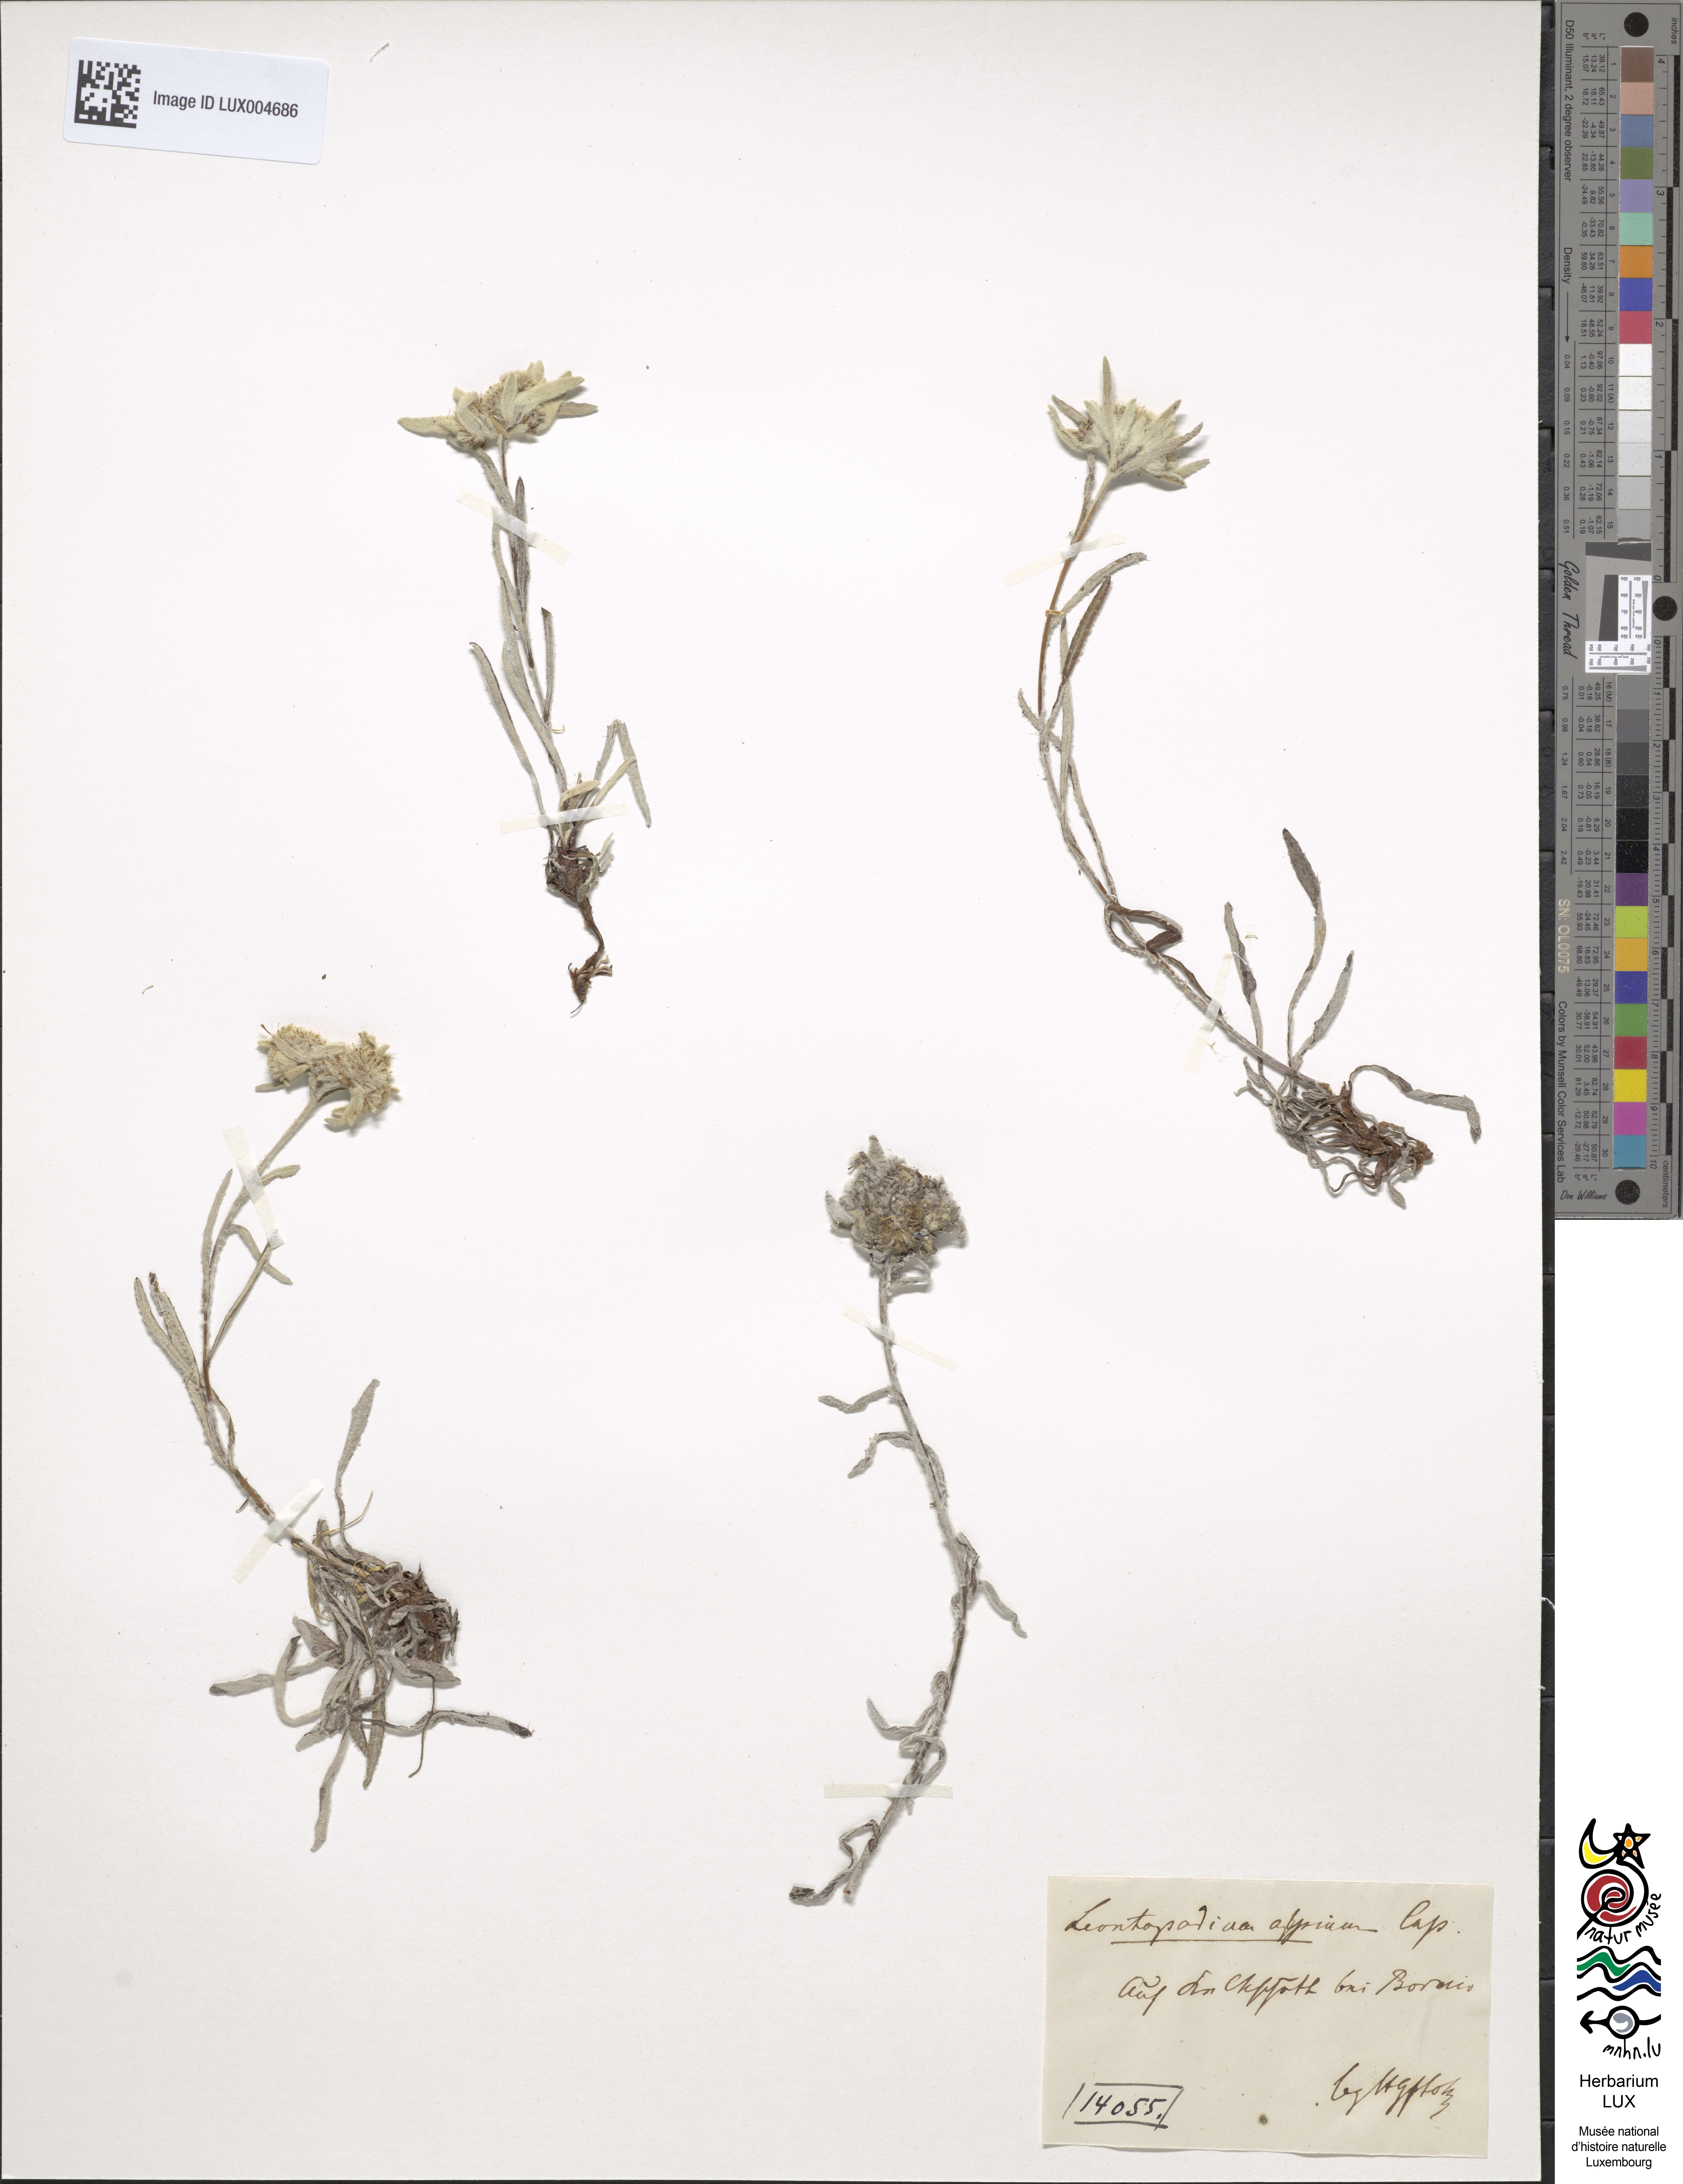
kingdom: Plantae
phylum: Tracheophyta
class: Magnoliopsida
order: Asterales
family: Asteraceae
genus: Leontopodium
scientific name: Leontopodium nivale
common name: Edelweiss
